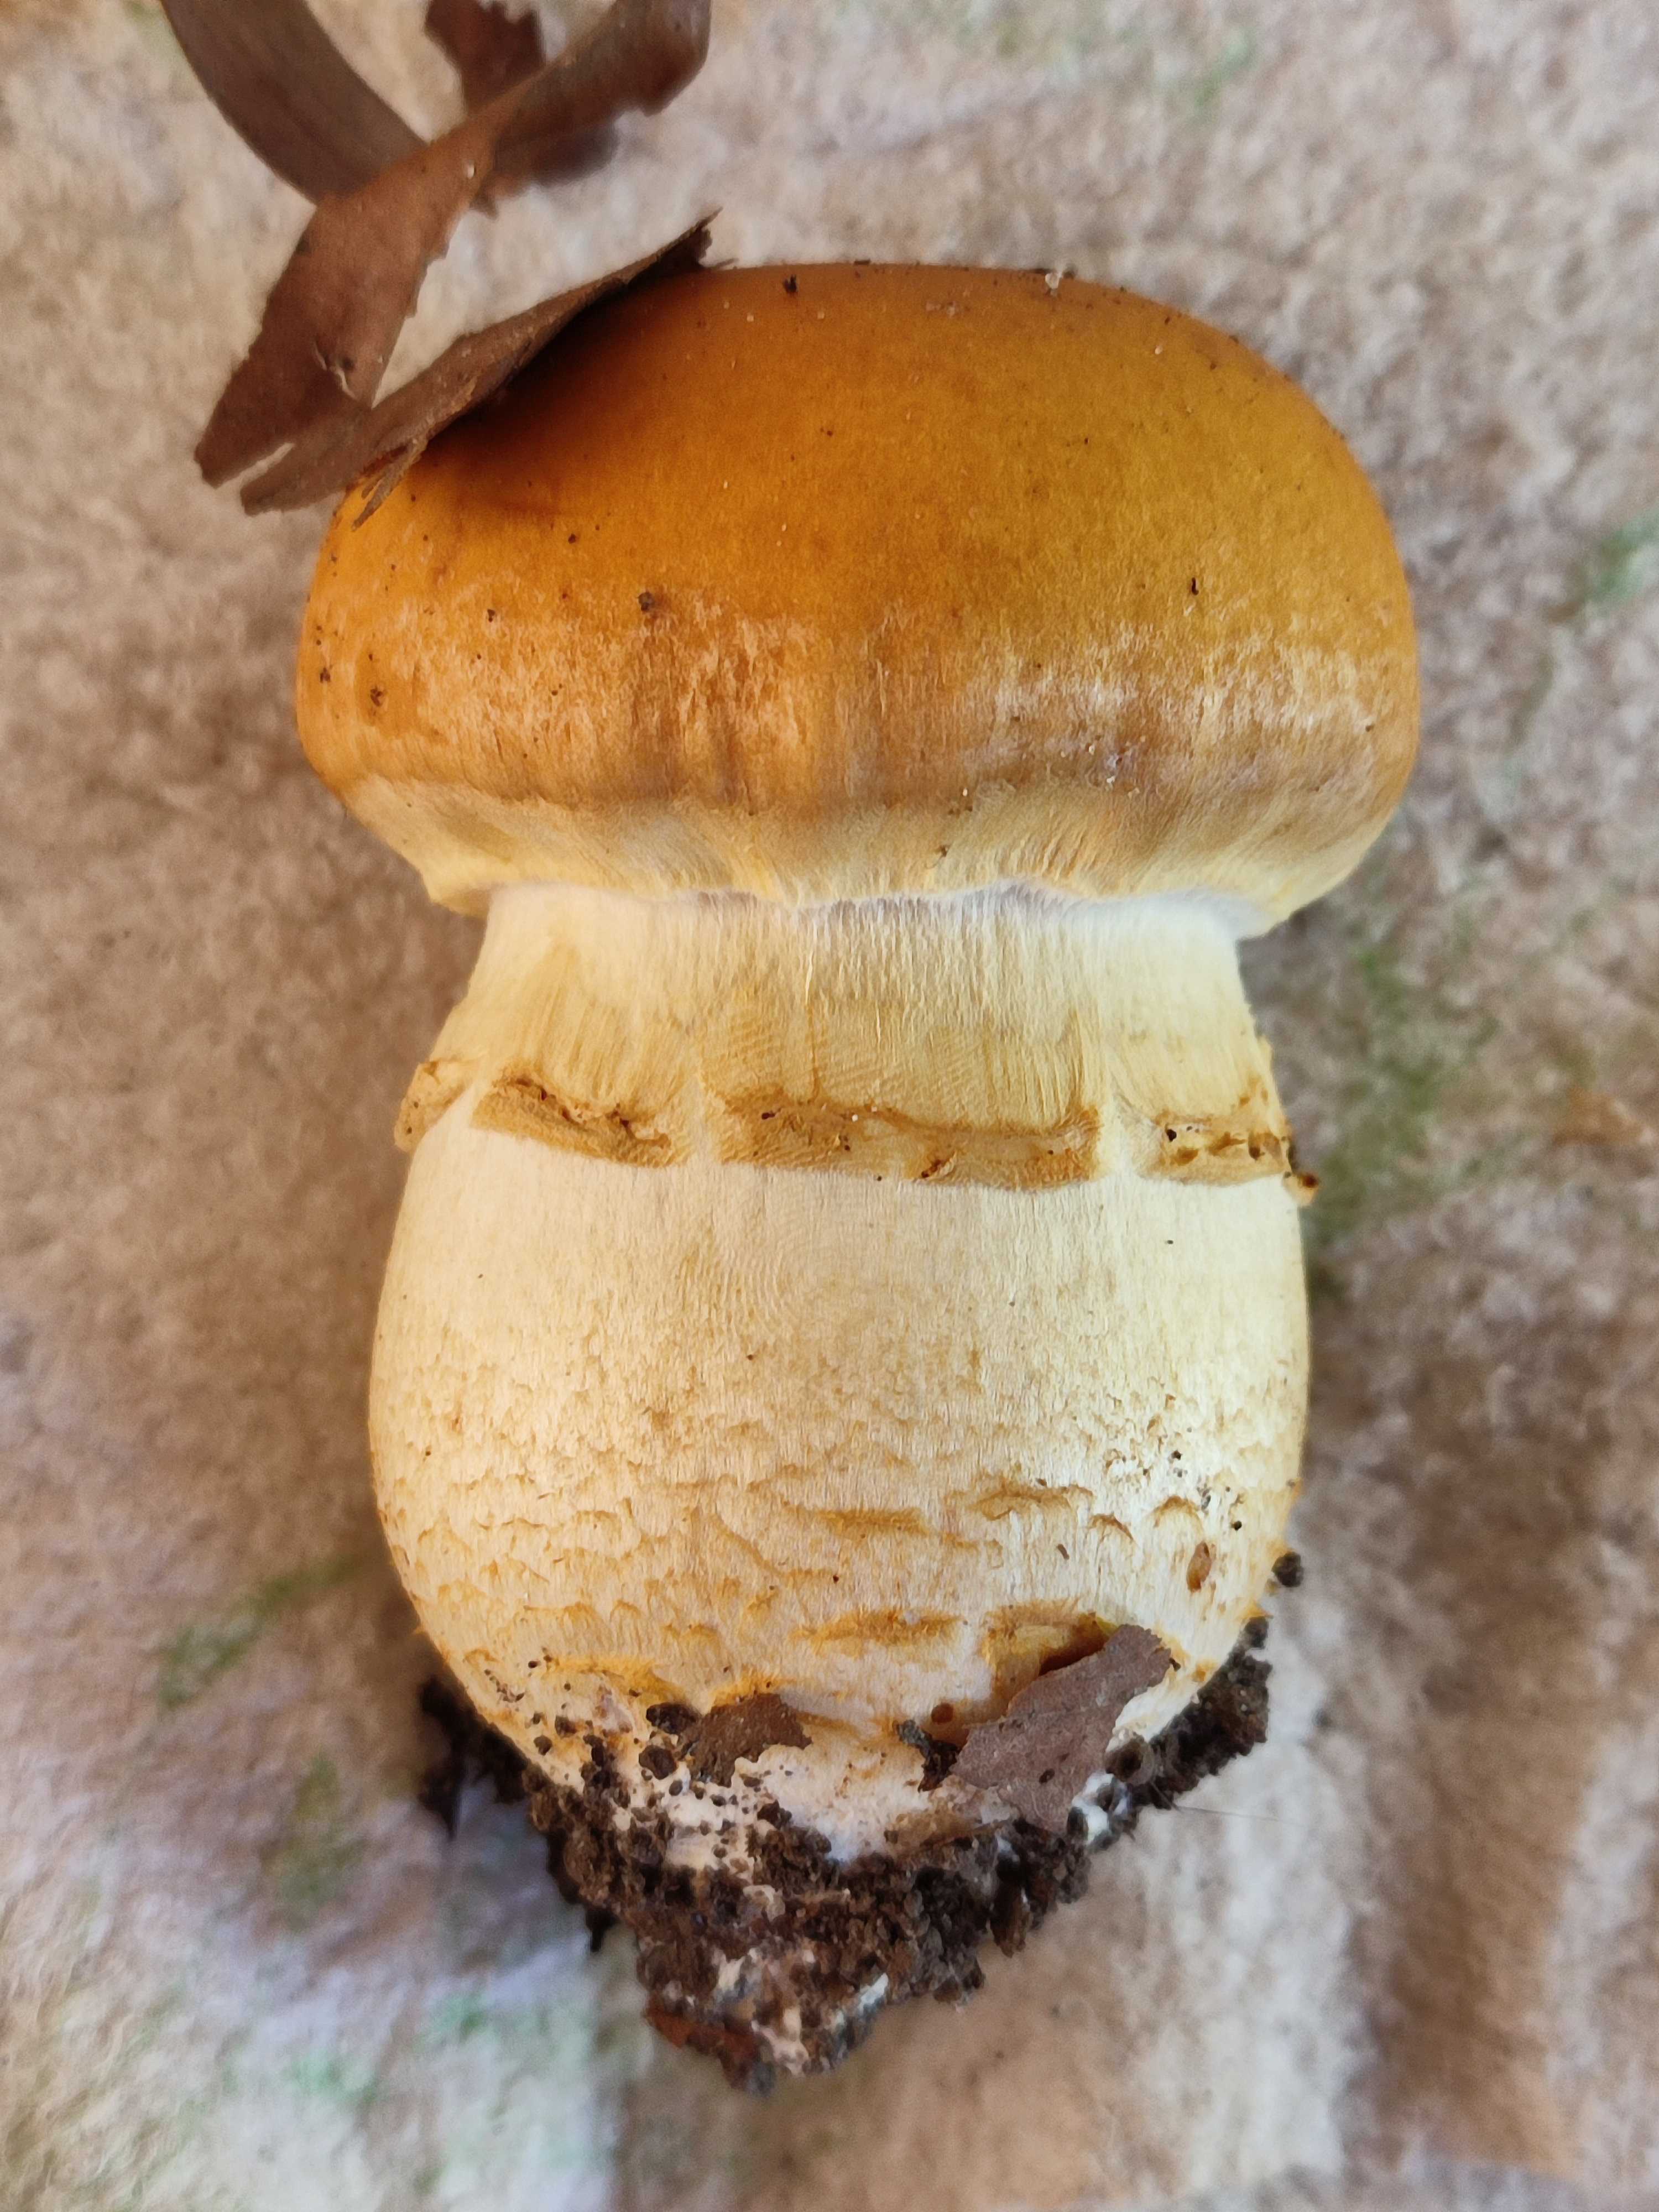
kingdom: Fungi
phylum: Basidiomycota
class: Agaricomycetes
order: Agaricales
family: Cortinariaceae
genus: Phlegmacium
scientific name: Phlegmacium triumphans
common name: gulbæltet slørhat
